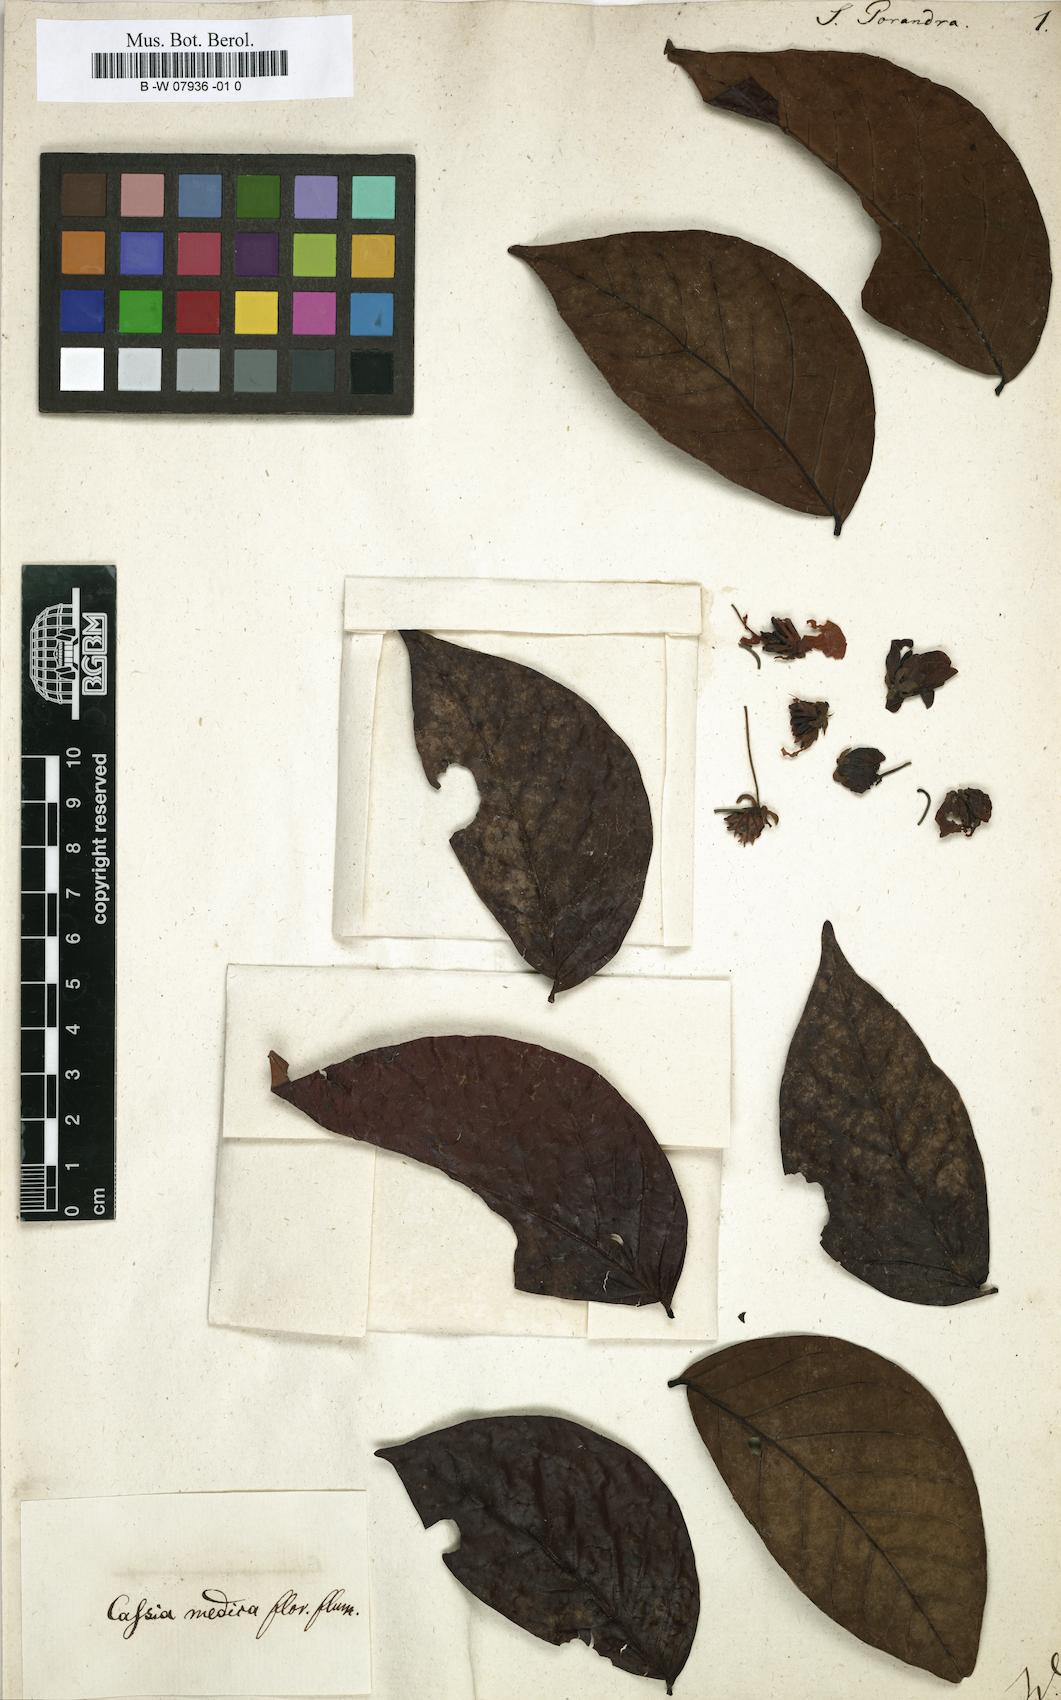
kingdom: Plantae
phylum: Tracheophyta
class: Magnoliopsida
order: Fabales
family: Fabaceae
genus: Cassia
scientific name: Cassia
